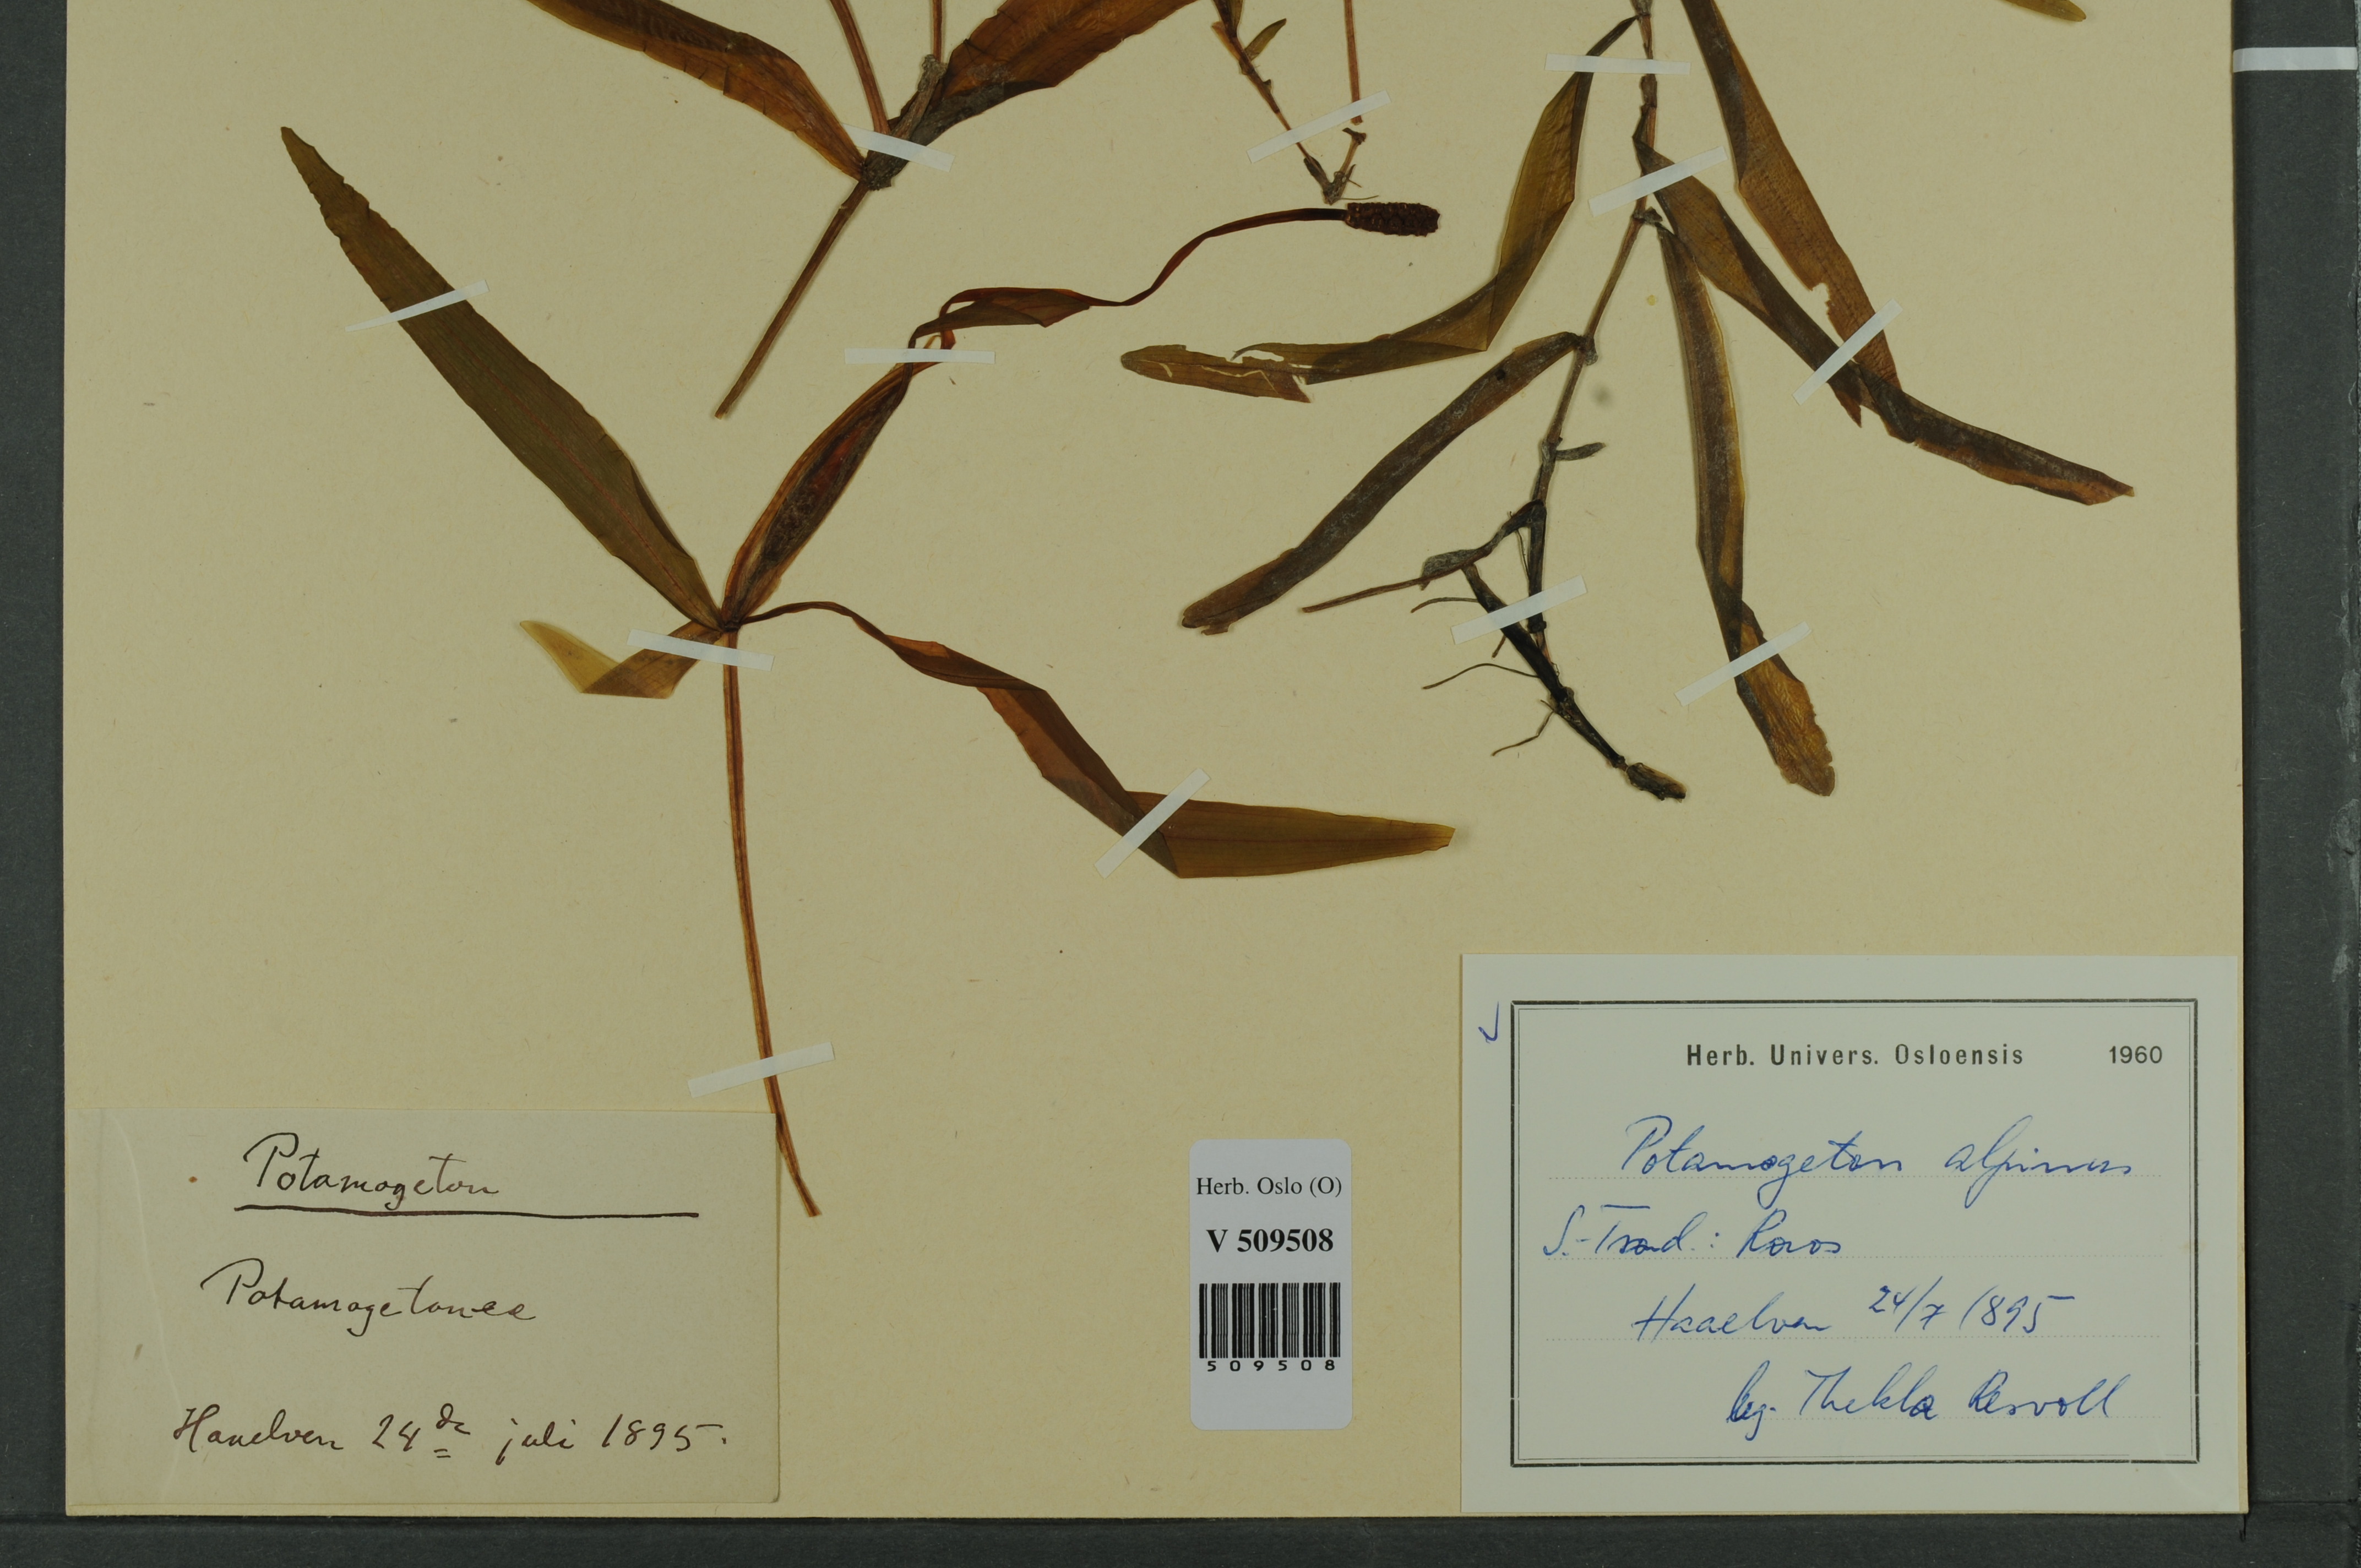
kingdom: Plantae
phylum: Tracheophyta
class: Liliopsida
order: Alismatales
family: Potamogetonaceae
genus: Potamogeton
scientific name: Potamogeton alpinus
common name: Red pondweed
